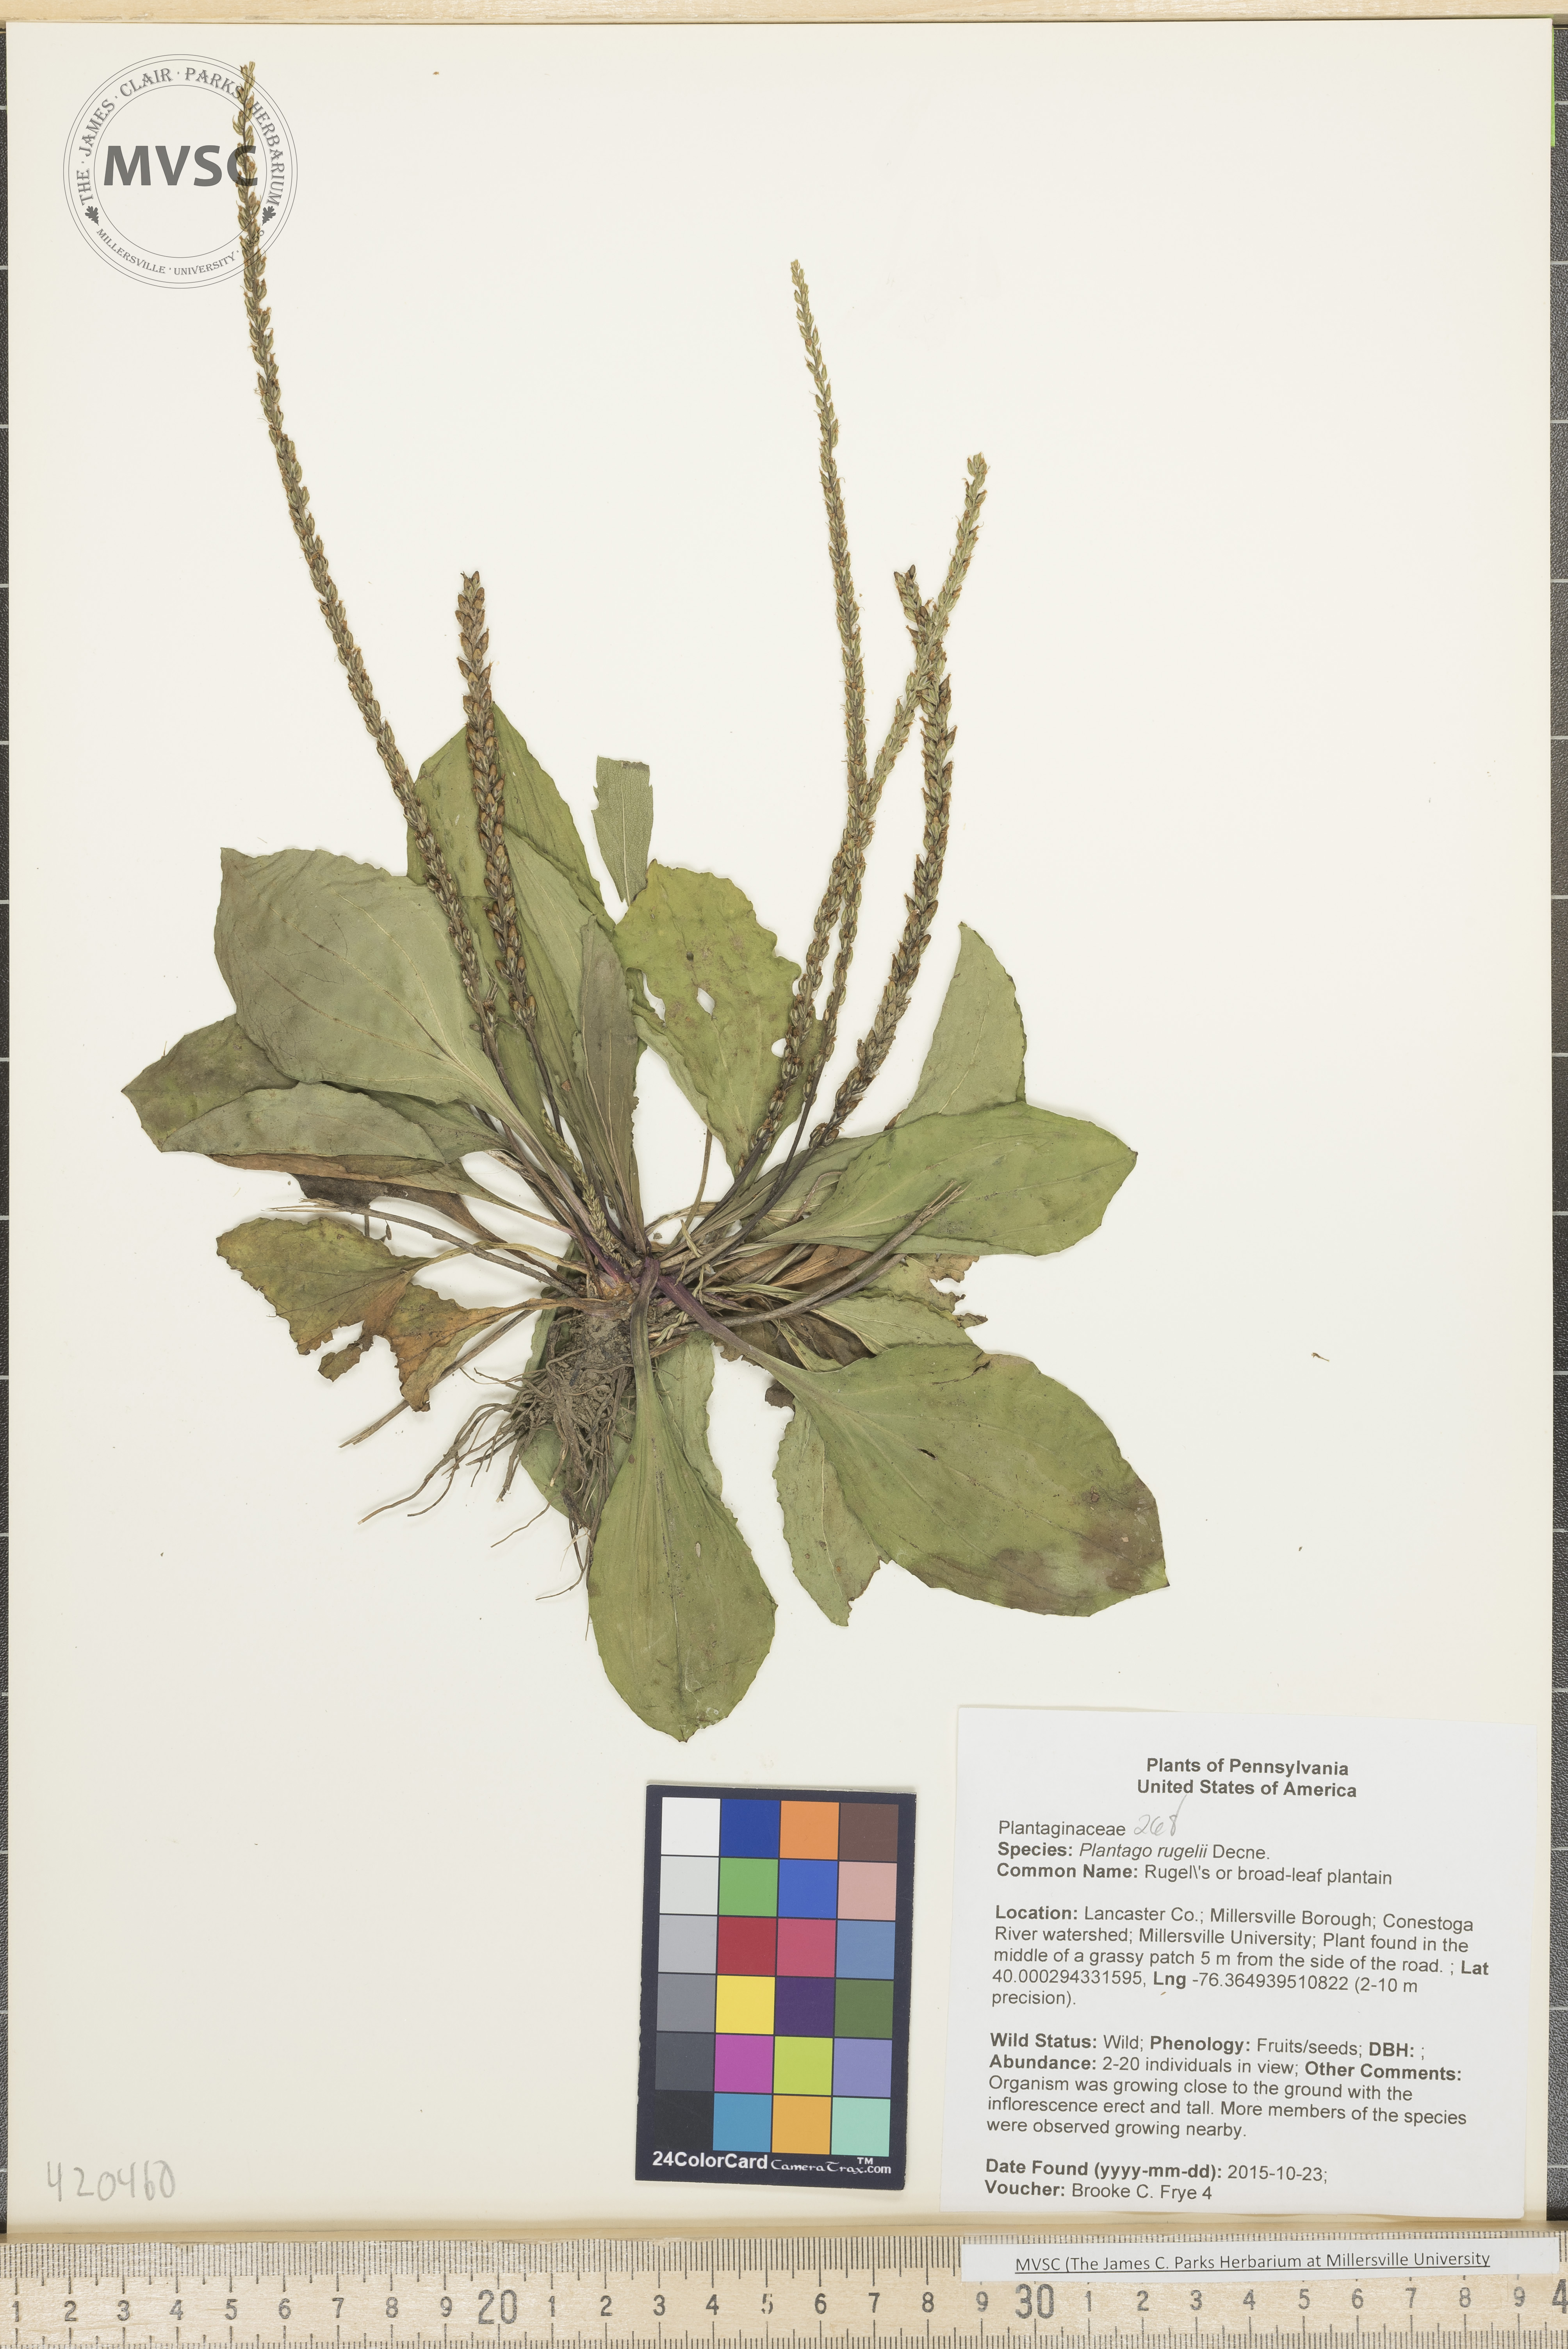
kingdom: Plantae
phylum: Tracheophyta
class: Magnoliopsida
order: Lamiales
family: Plantaginaceae
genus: Plantago
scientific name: Plantago rugelii
